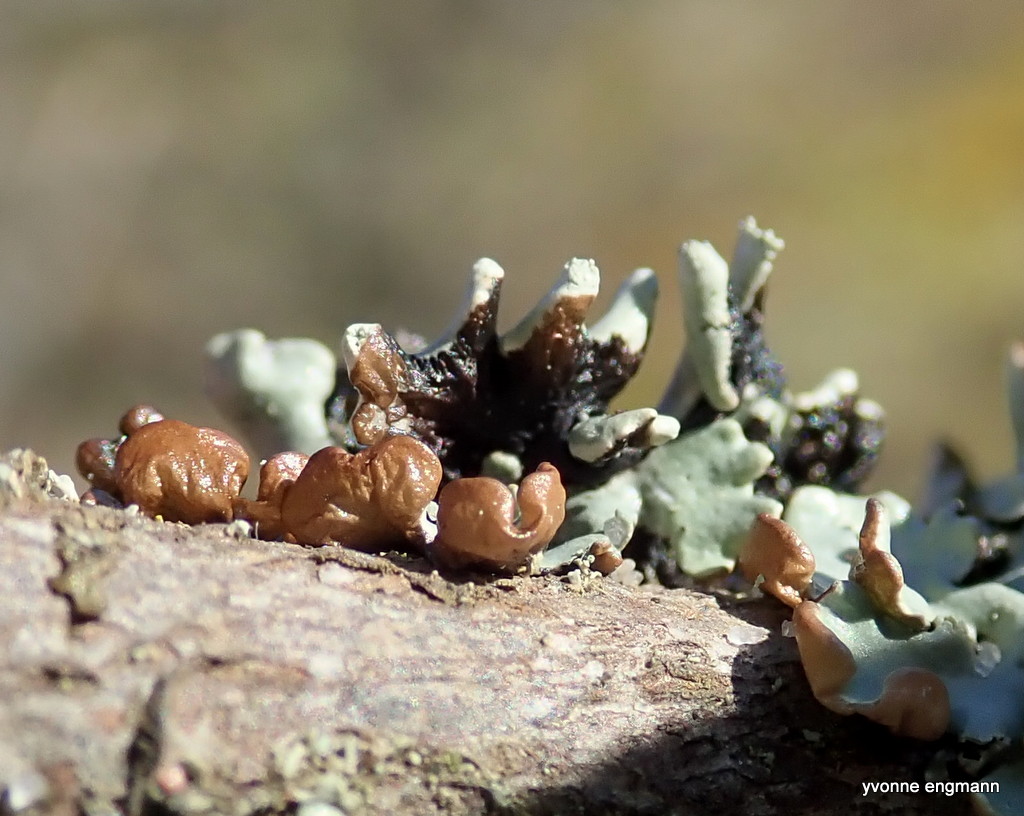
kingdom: Fungi
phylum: Ascomycota
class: Lecanoromycetes
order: Lecanorales
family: Parmeliaceae
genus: Hypogymnia
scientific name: Hypogymnia physodes
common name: almindelig kvistlav
